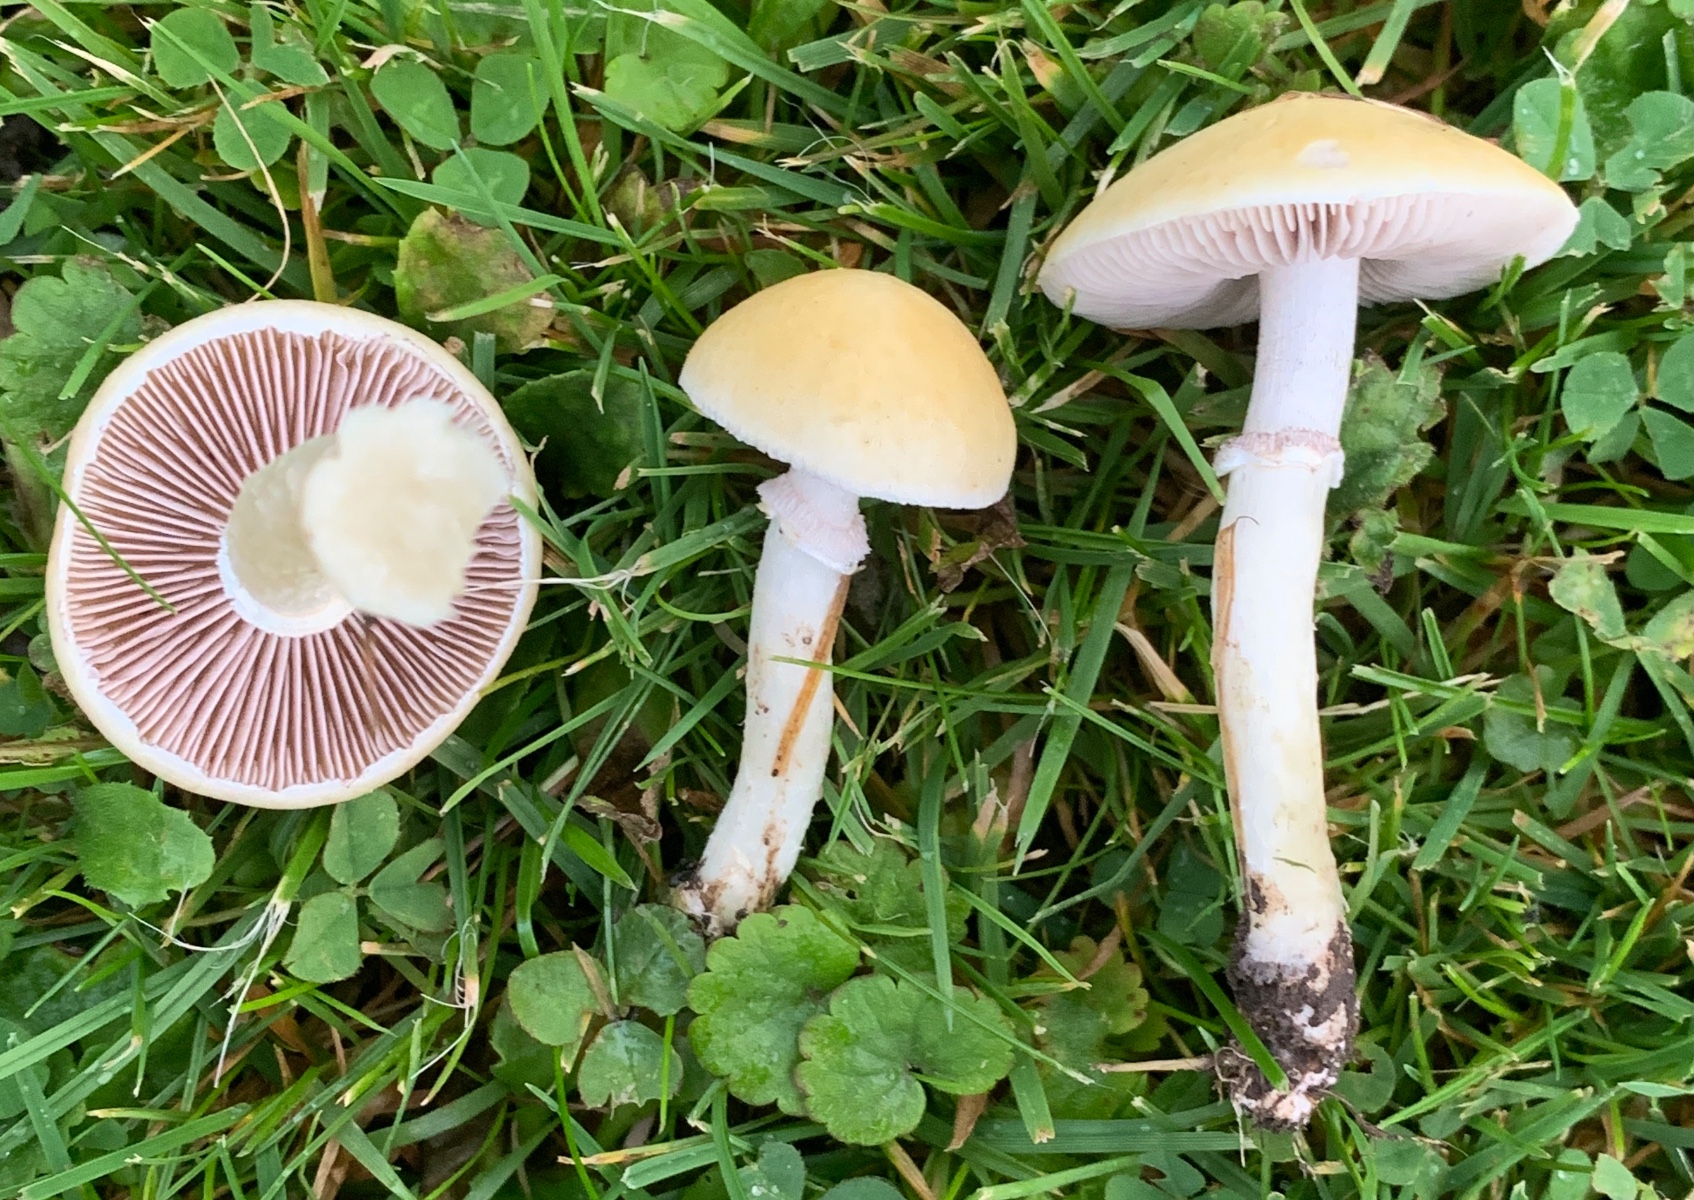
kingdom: Fungi
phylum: Basidiomycota
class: Agaricomycetes
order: Agaricales
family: Hymenogastraceae
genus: Psilocybe
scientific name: Psilocybe coronilla
